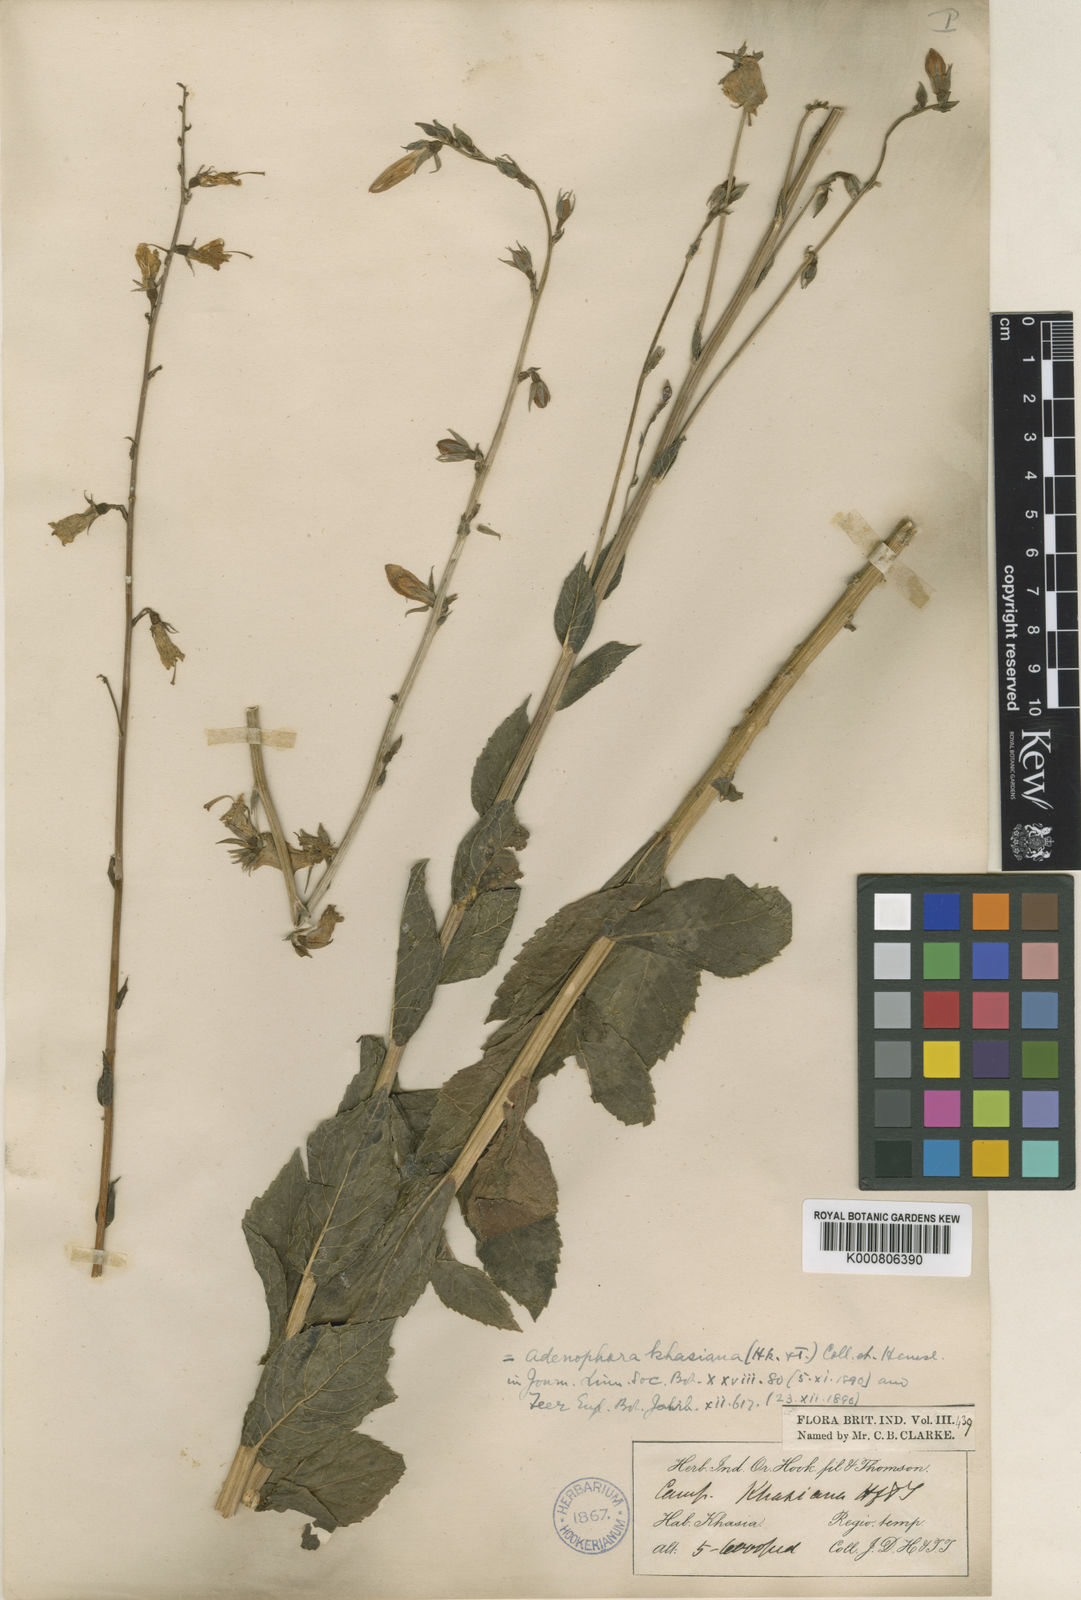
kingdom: Plantae
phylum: Tracheophyta
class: Magnoliopsida
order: Asterales
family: Campanulaceae
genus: Adenophora
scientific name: Adenophora khasiana
